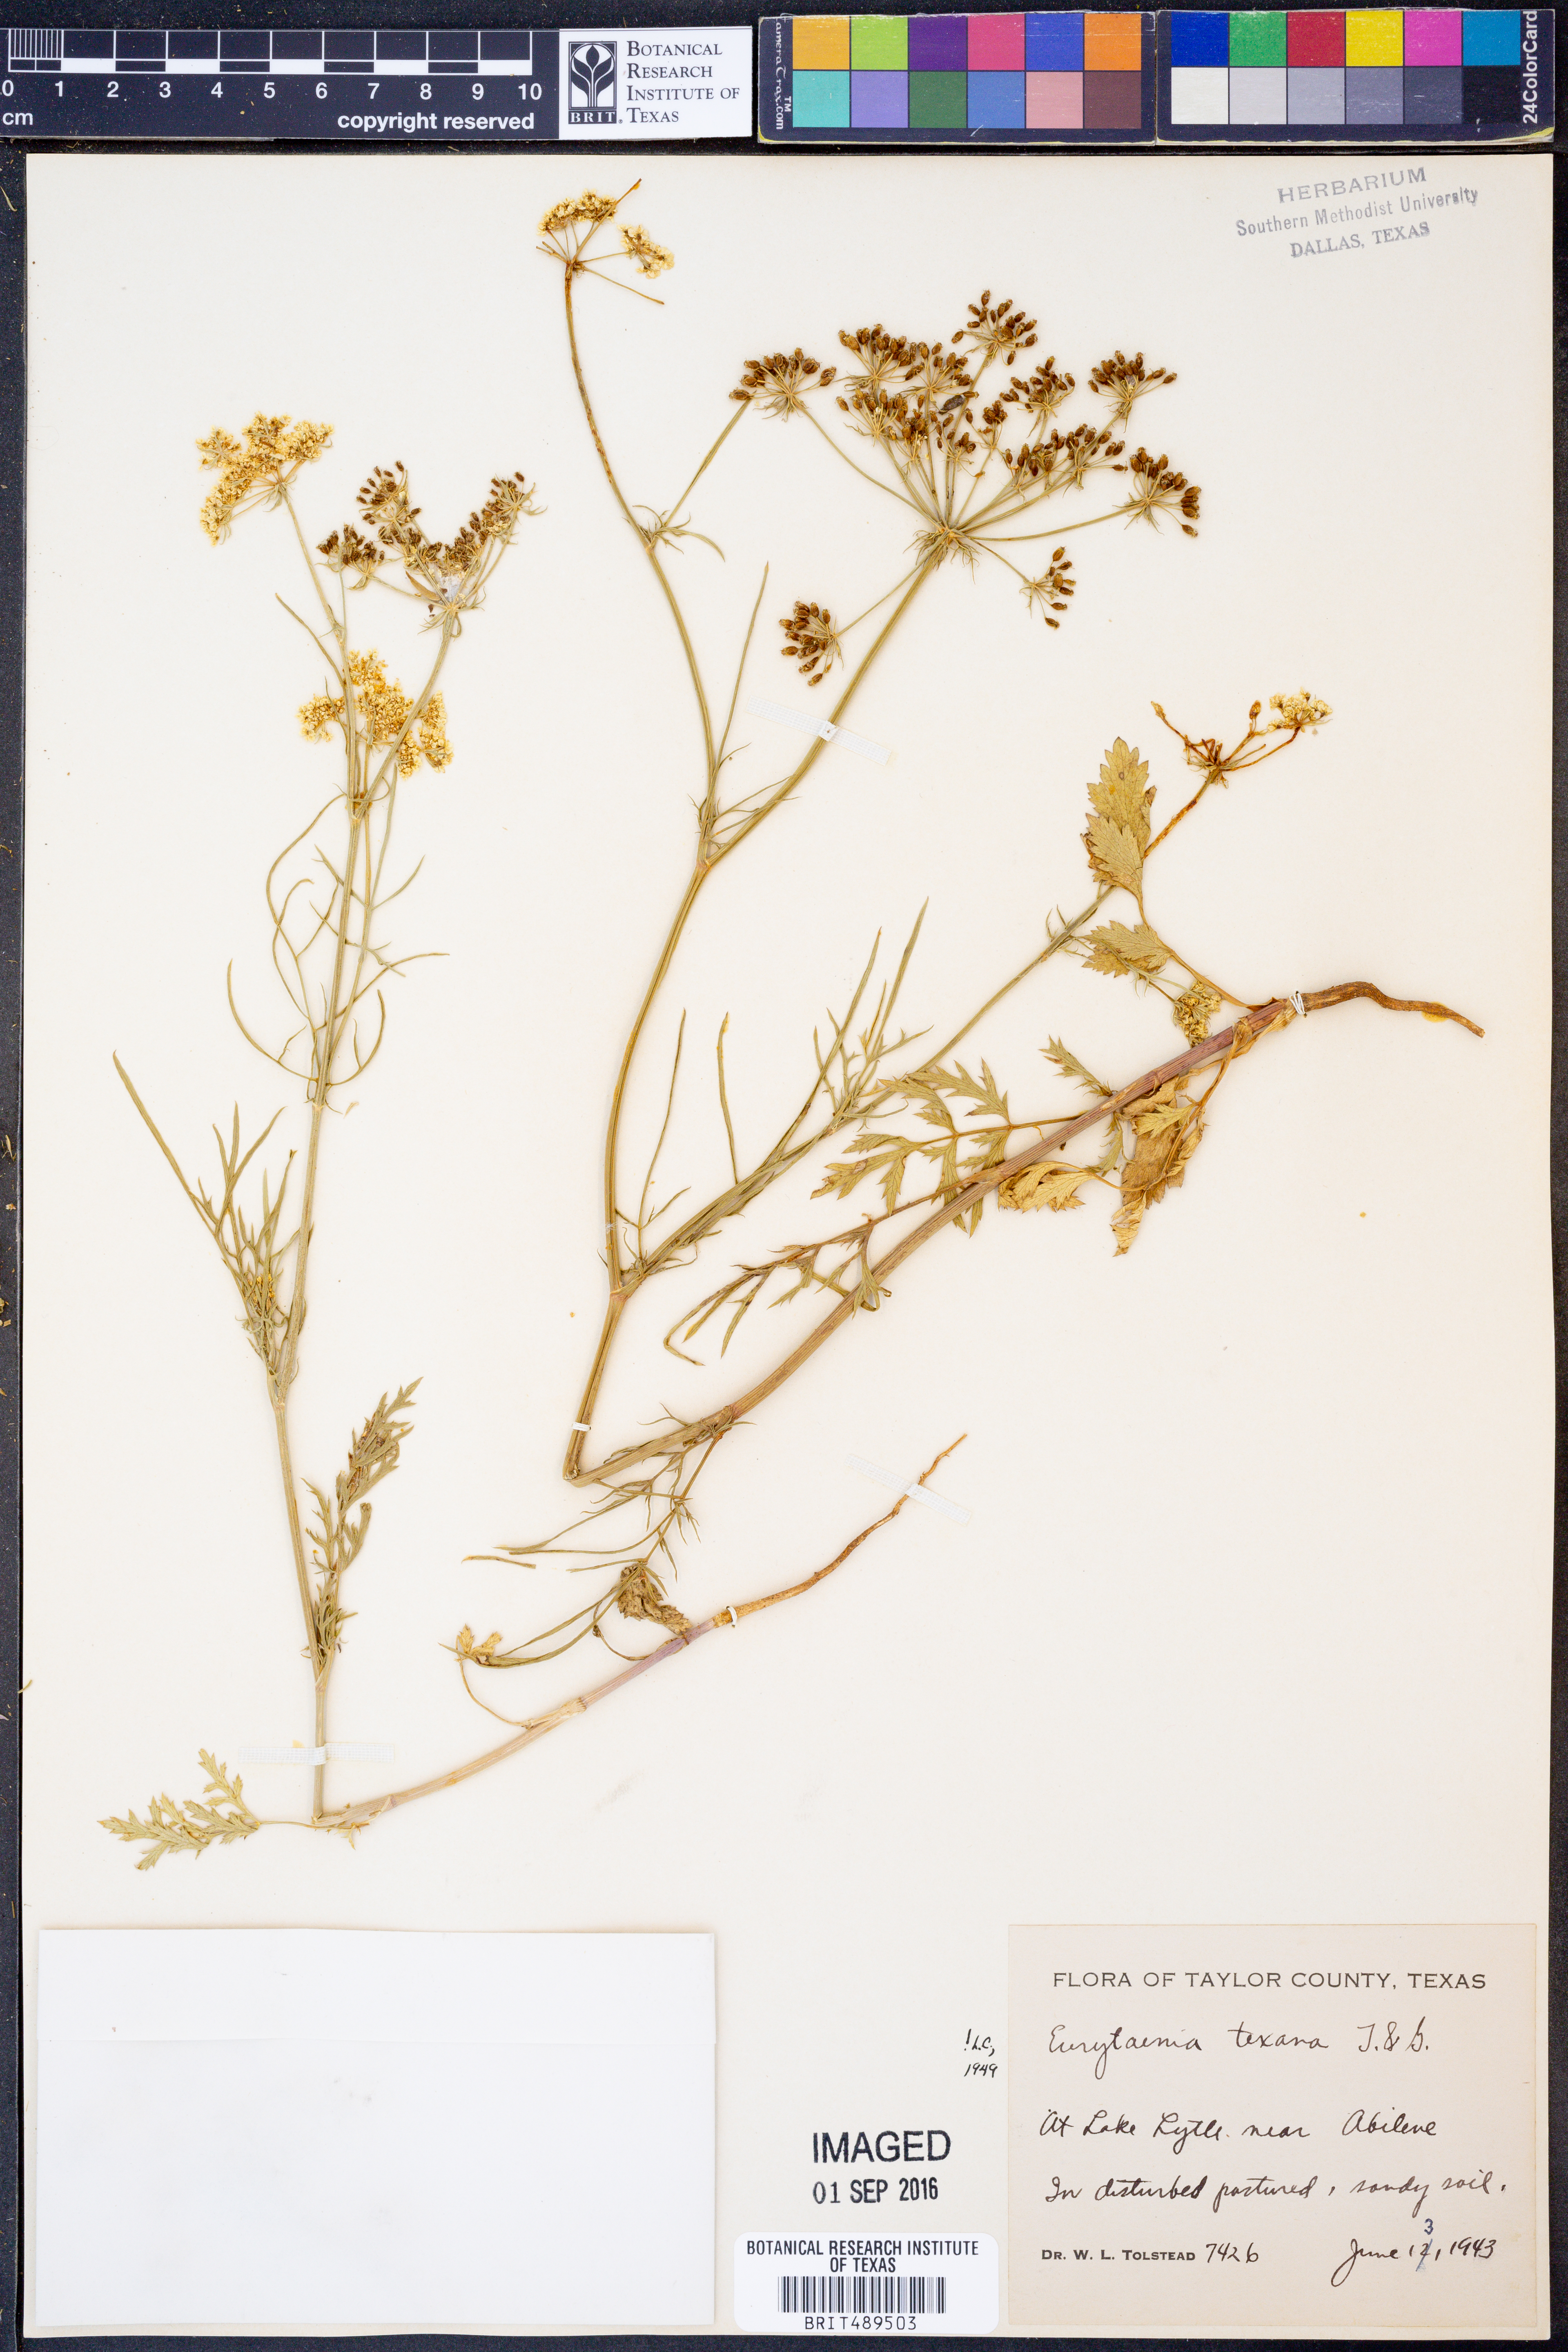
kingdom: Plantae
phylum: Tracheophyta
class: Magnoliopsida
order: Apiales
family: Apiaceae
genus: Eurytaenia
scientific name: Eurytaenia texana
